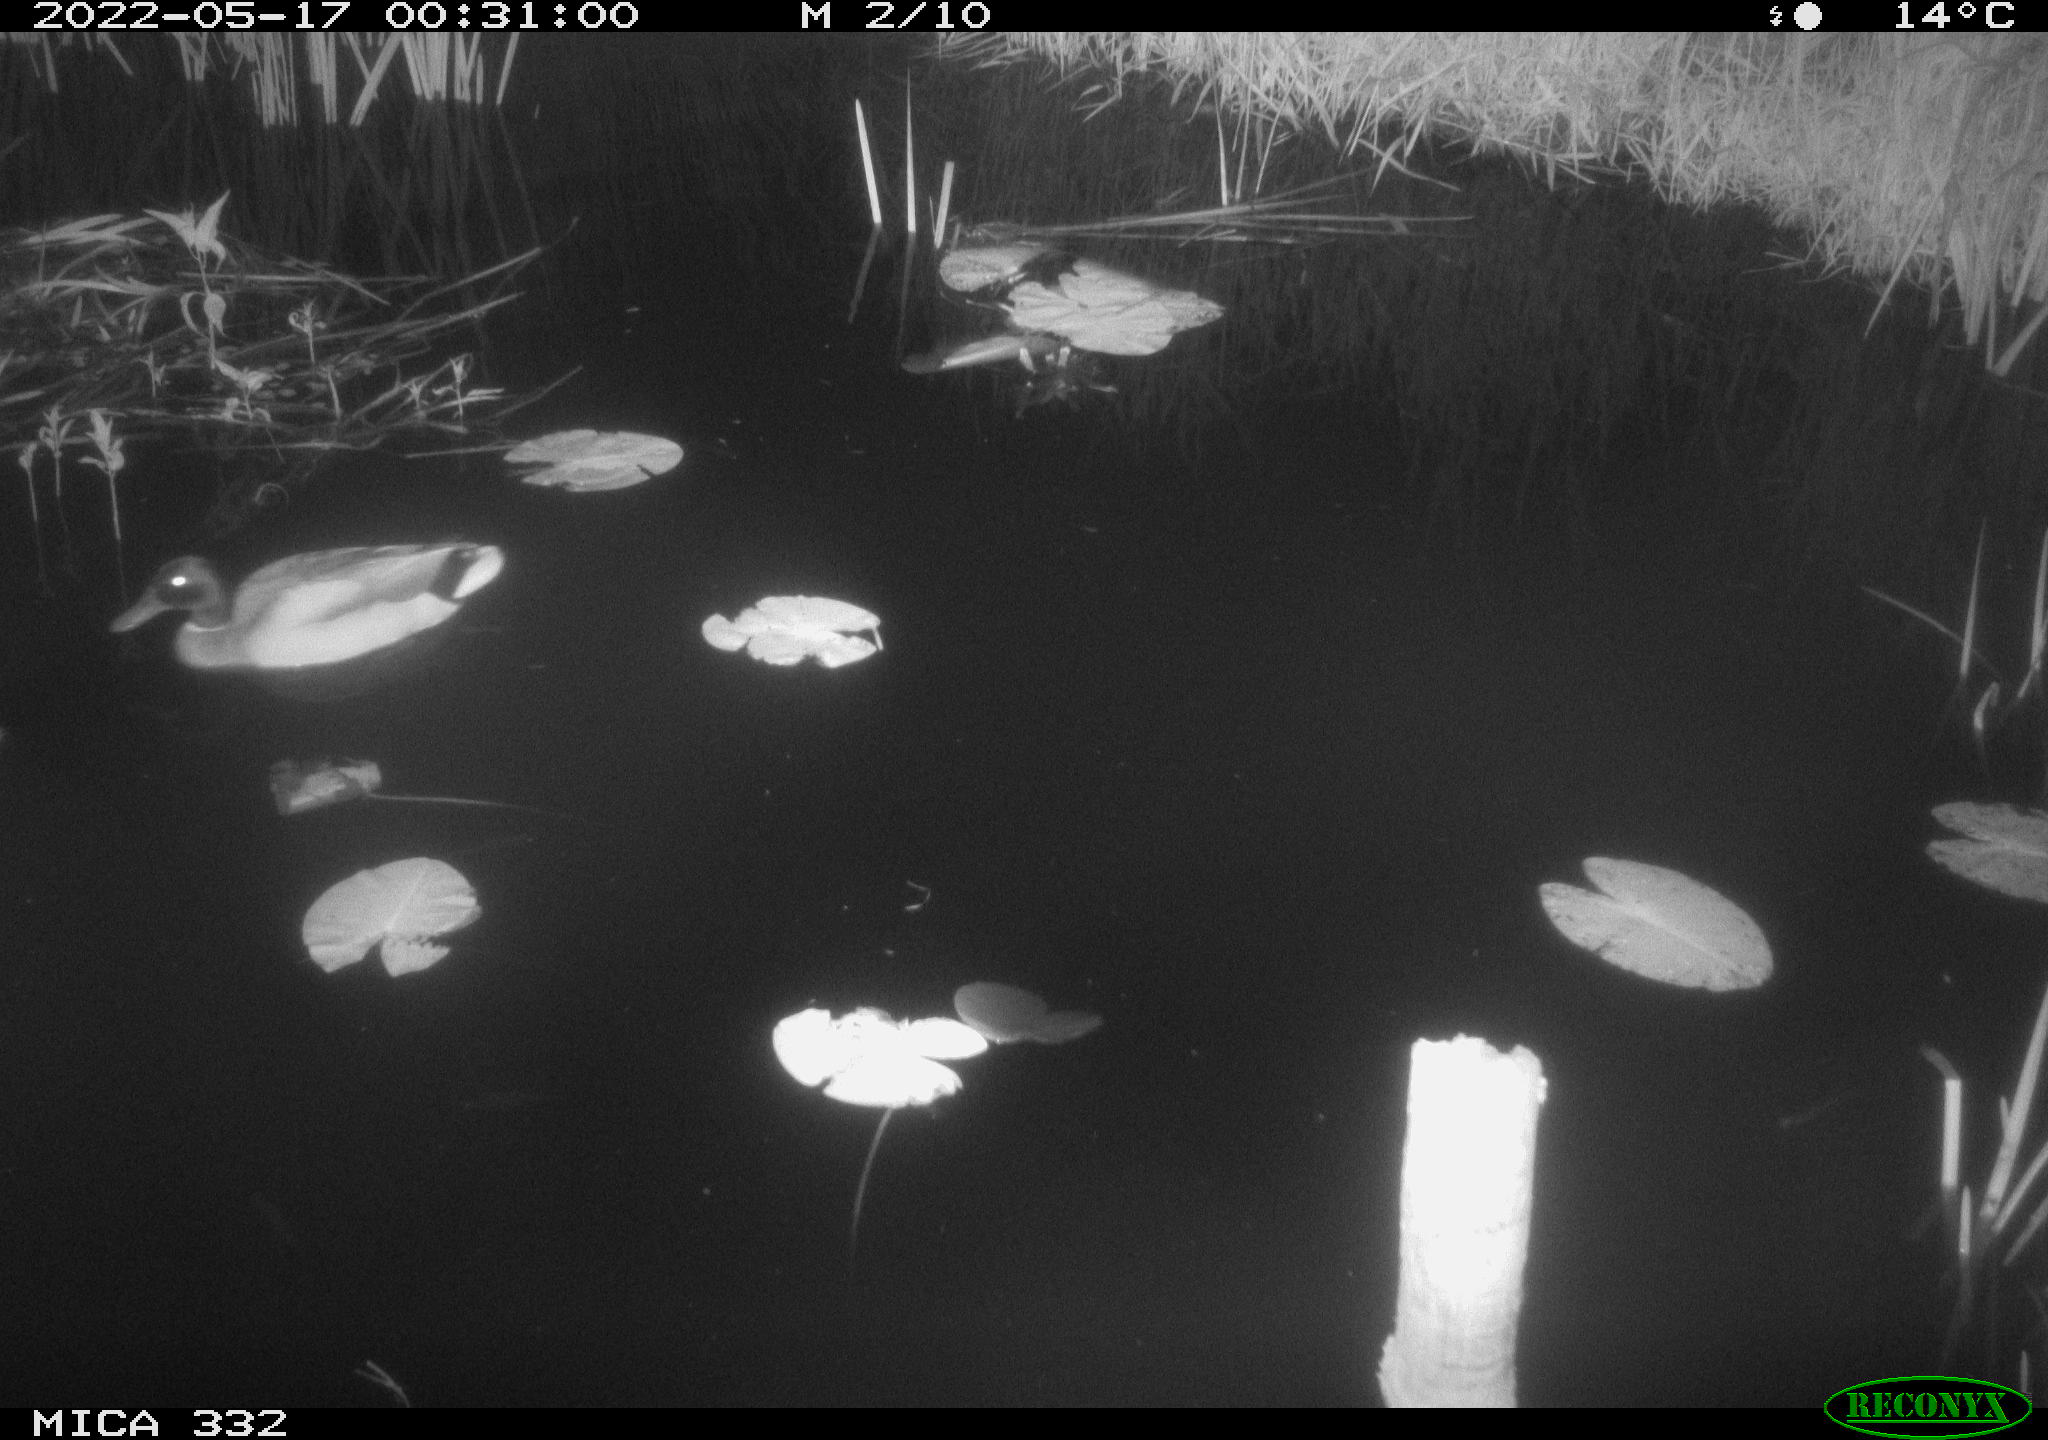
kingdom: Animalia
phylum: Chordata
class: Aves
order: Anseriformes
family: Anatidae
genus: Anas
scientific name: Anas platyrhynchos
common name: Mallard
